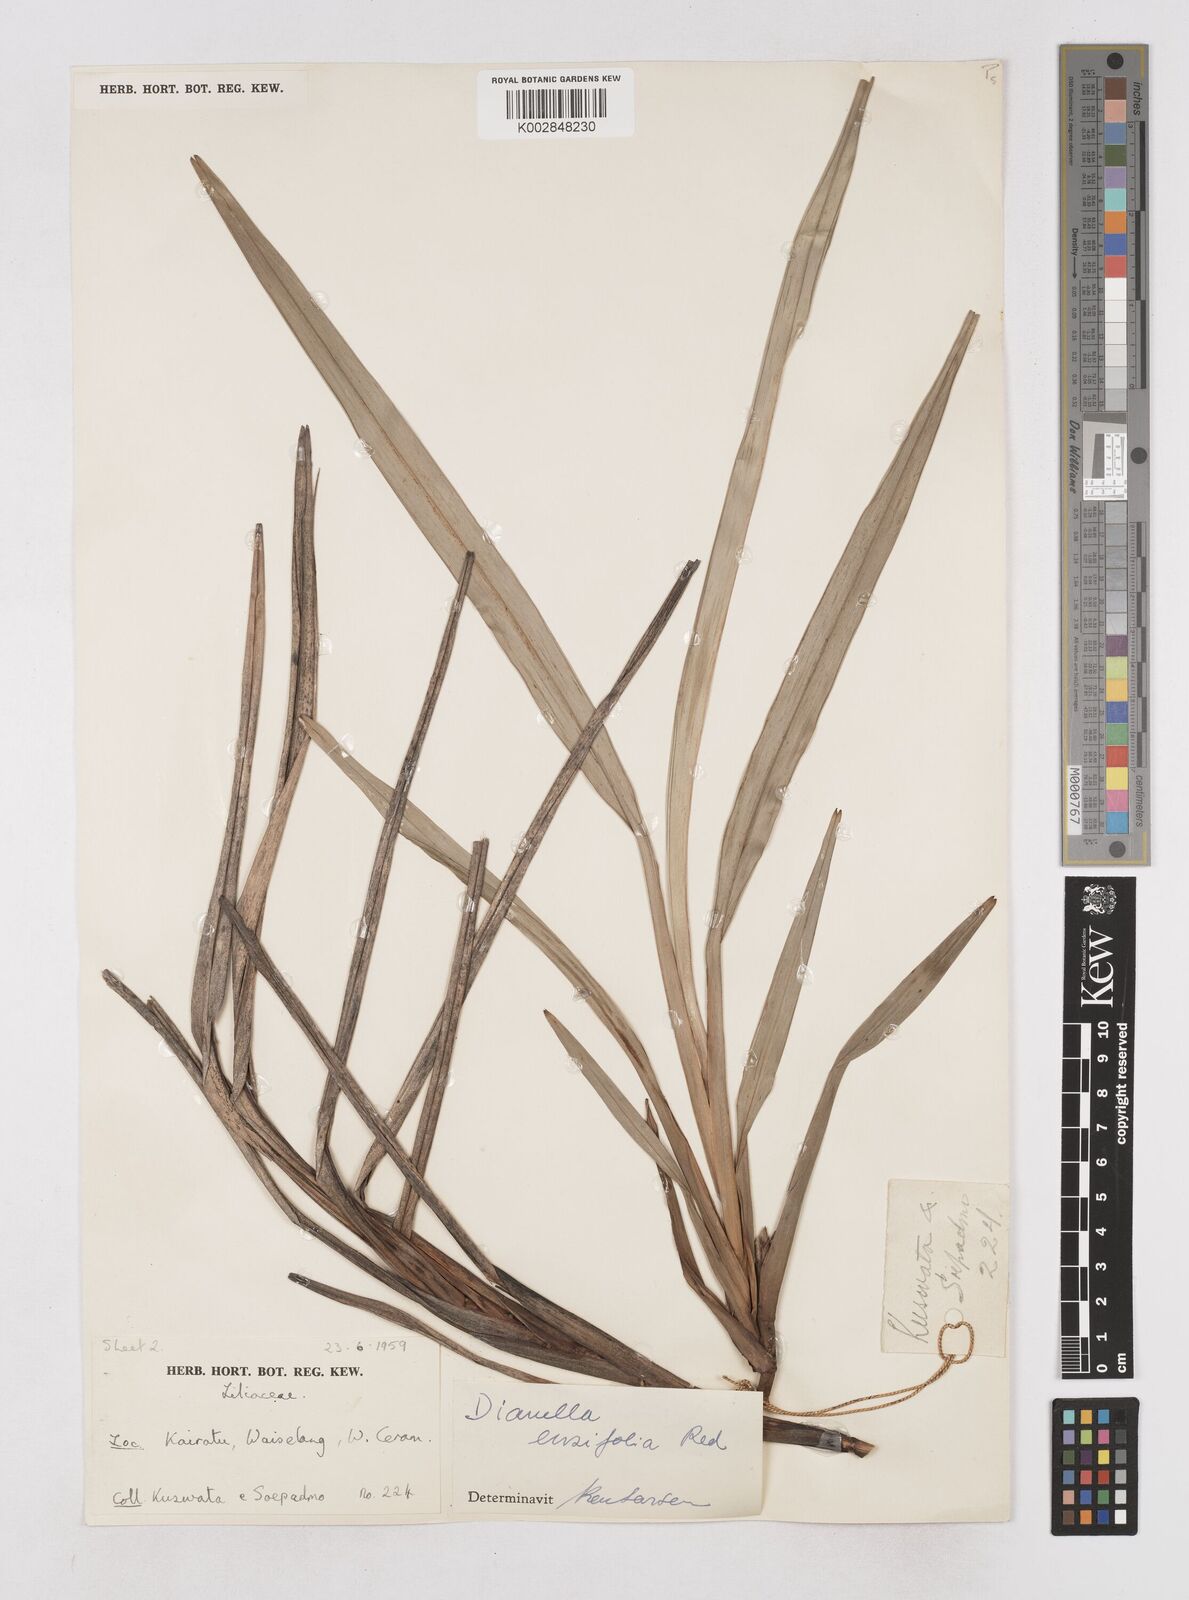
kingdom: Plantae
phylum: Tracheophyta
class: Liliopsida
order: Asparagales
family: Asphodelaceae
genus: Dianella
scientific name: Dianella ensifolia
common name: New zealand lilyplant
